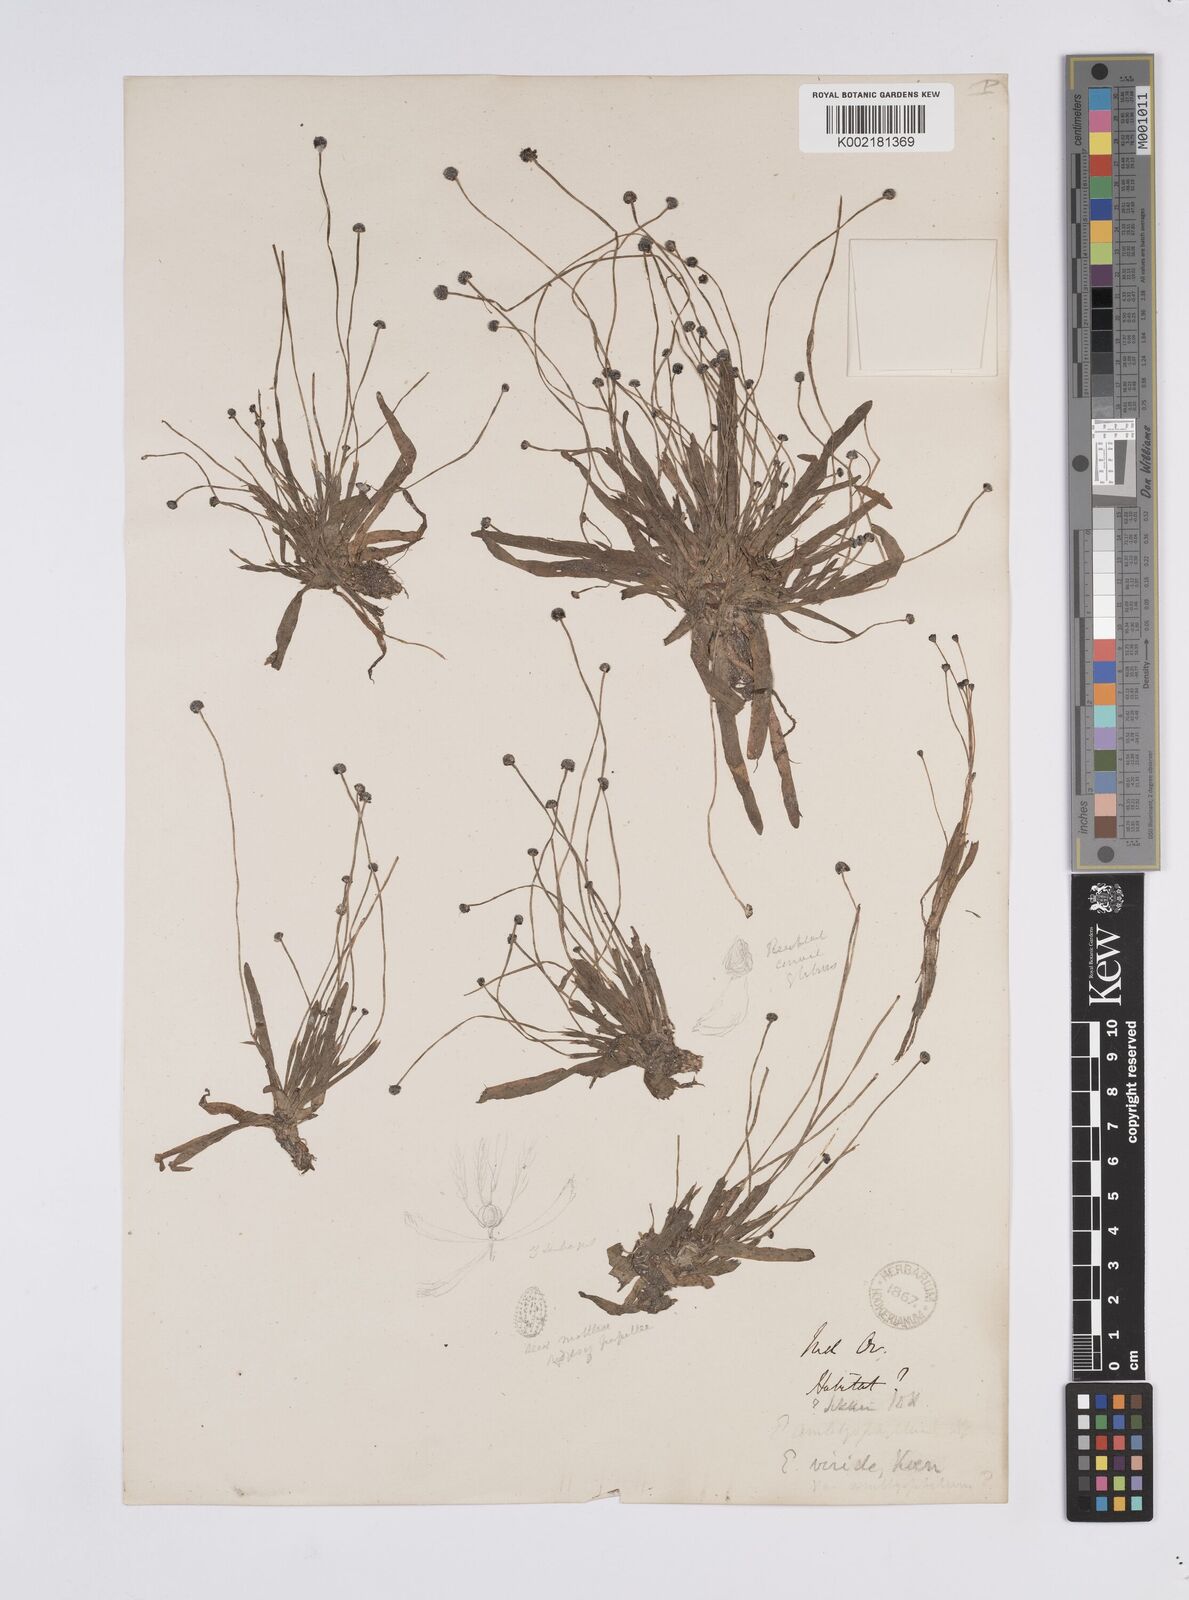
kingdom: Plantae
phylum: Tracheophyta
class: Liliopsida
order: Poales
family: Eriocaulaceae
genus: Eriocaulon
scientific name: Eriocaulon nepalense
